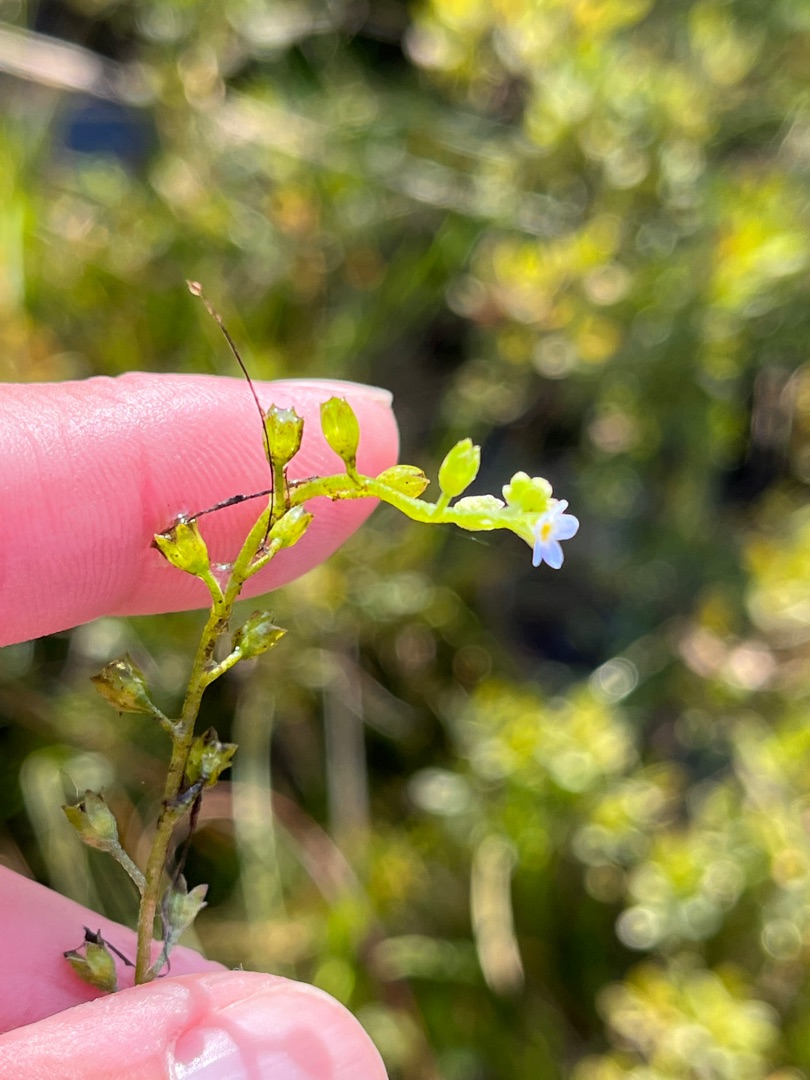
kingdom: Plantae
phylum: Tracheophyta
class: Magnoliopsida
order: Boraginales
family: Boraginaceae
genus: Myosotis
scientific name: Myosotis laxa
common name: Sump-forglemmigej
